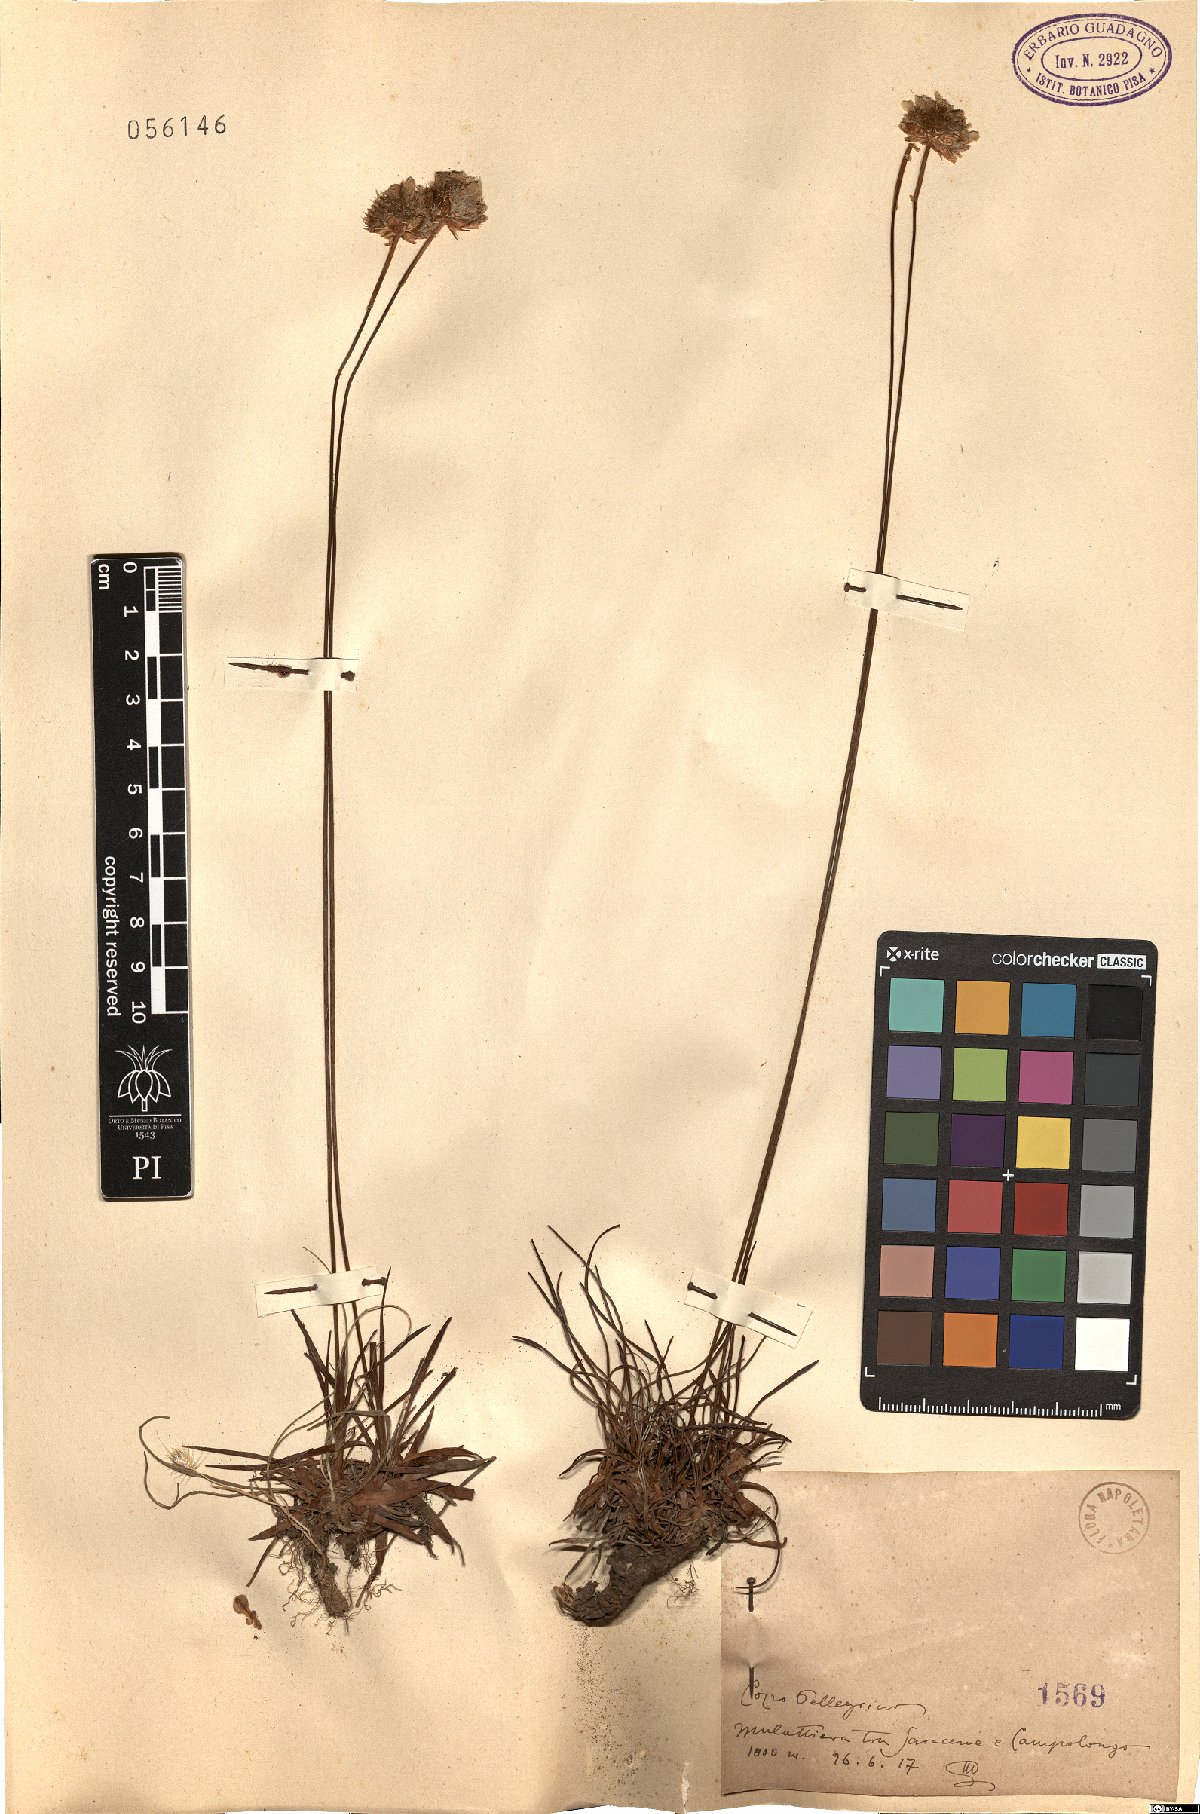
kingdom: Plantae
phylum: Tracheophyta
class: Magnoliopsida
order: Caryophyllales
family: Plumbaginaceae
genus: Armeria
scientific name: Armeria
